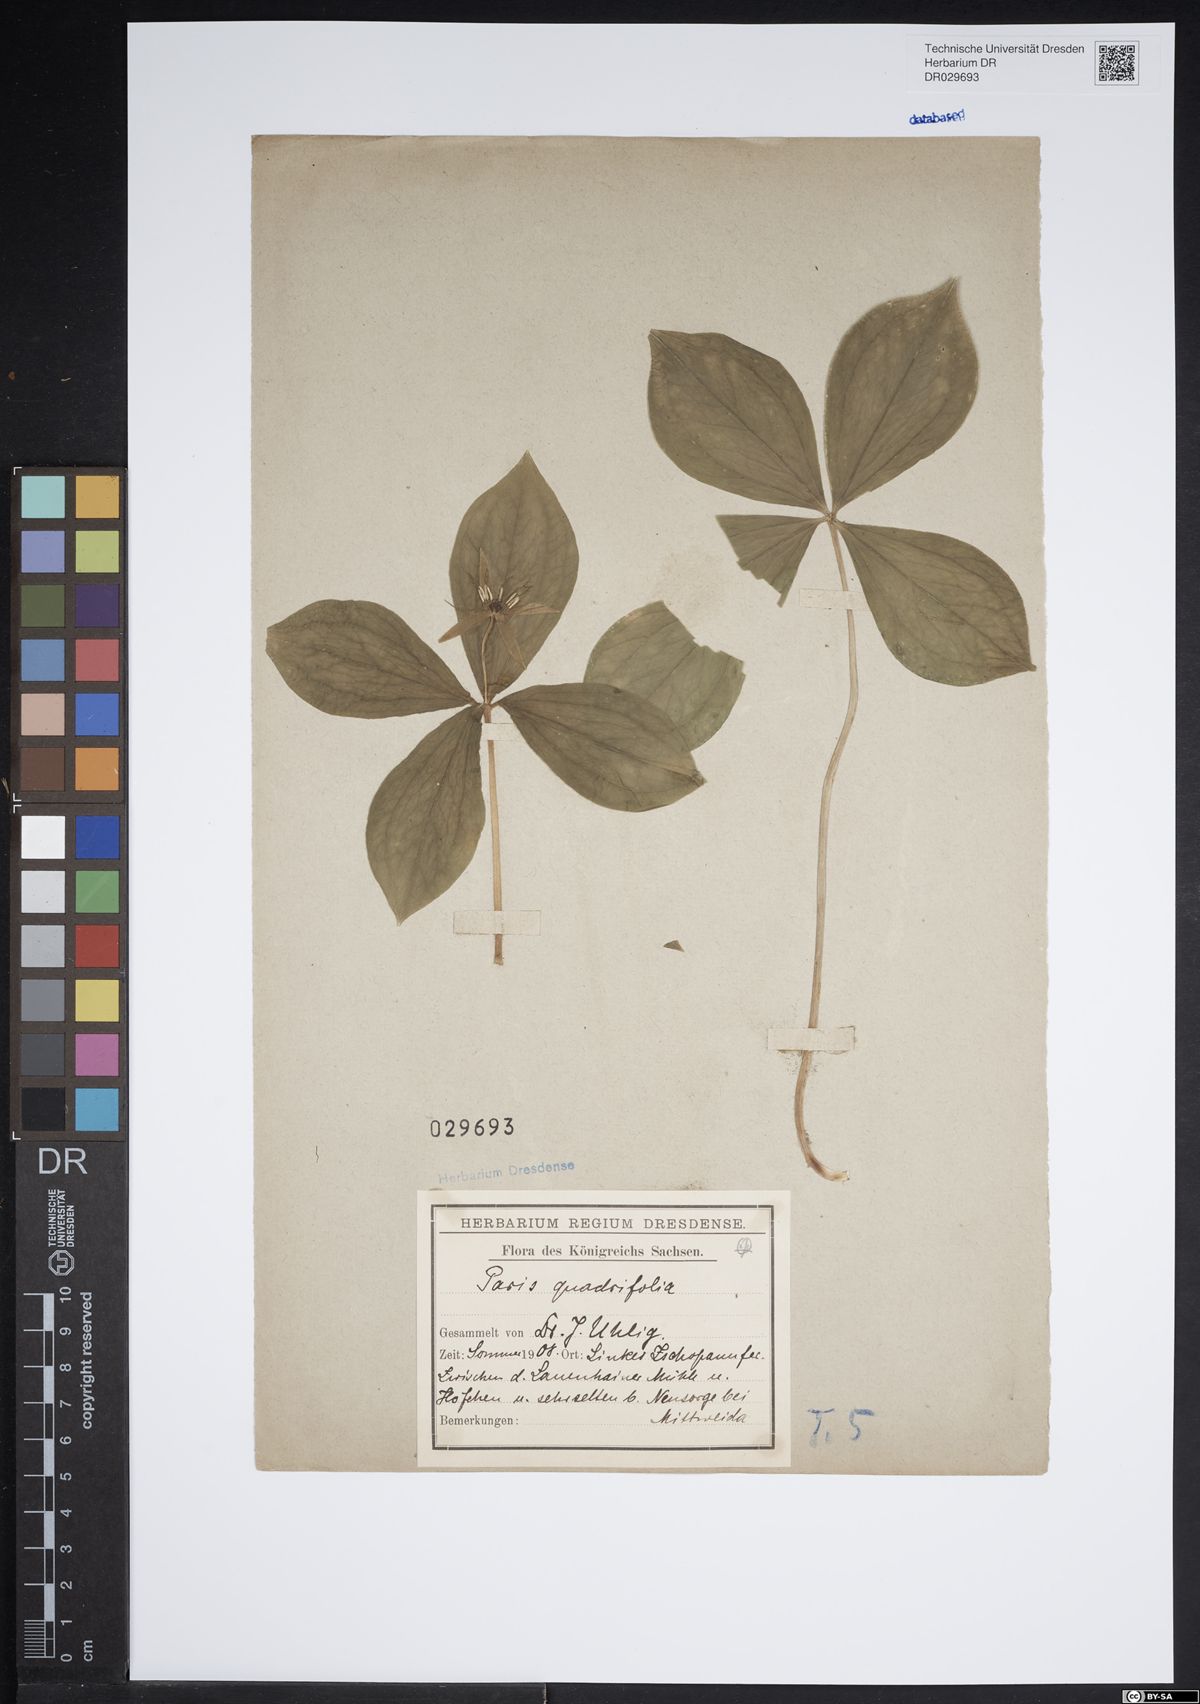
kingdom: Plantae
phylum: Tracheophyta
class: Liliopsida
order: Liliales
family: Melanthiaceae
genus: Paris
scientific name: Paris quadrifolia
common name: Herb-paris
